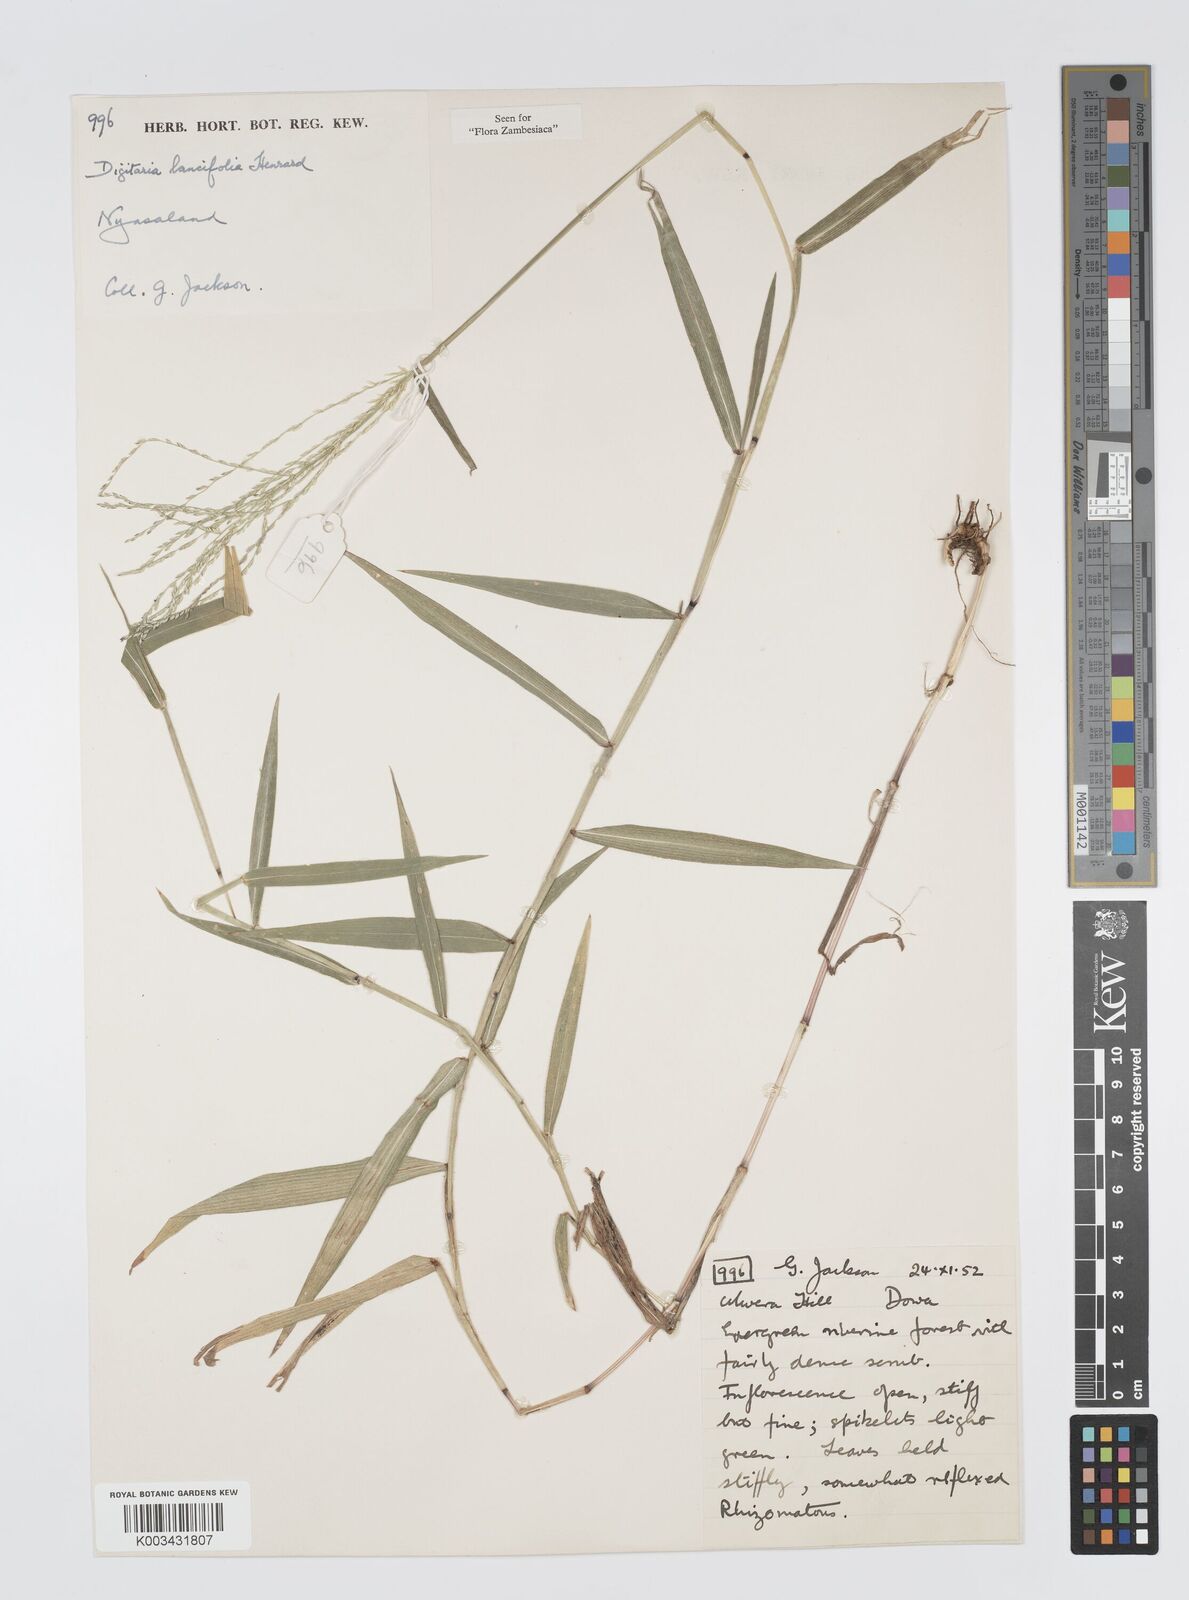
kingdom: Plantae
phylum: Tracheophyta
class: Liliopsida
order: Poales
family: Poaceae
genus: Digitaria
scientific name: Digitaria pearsonii
